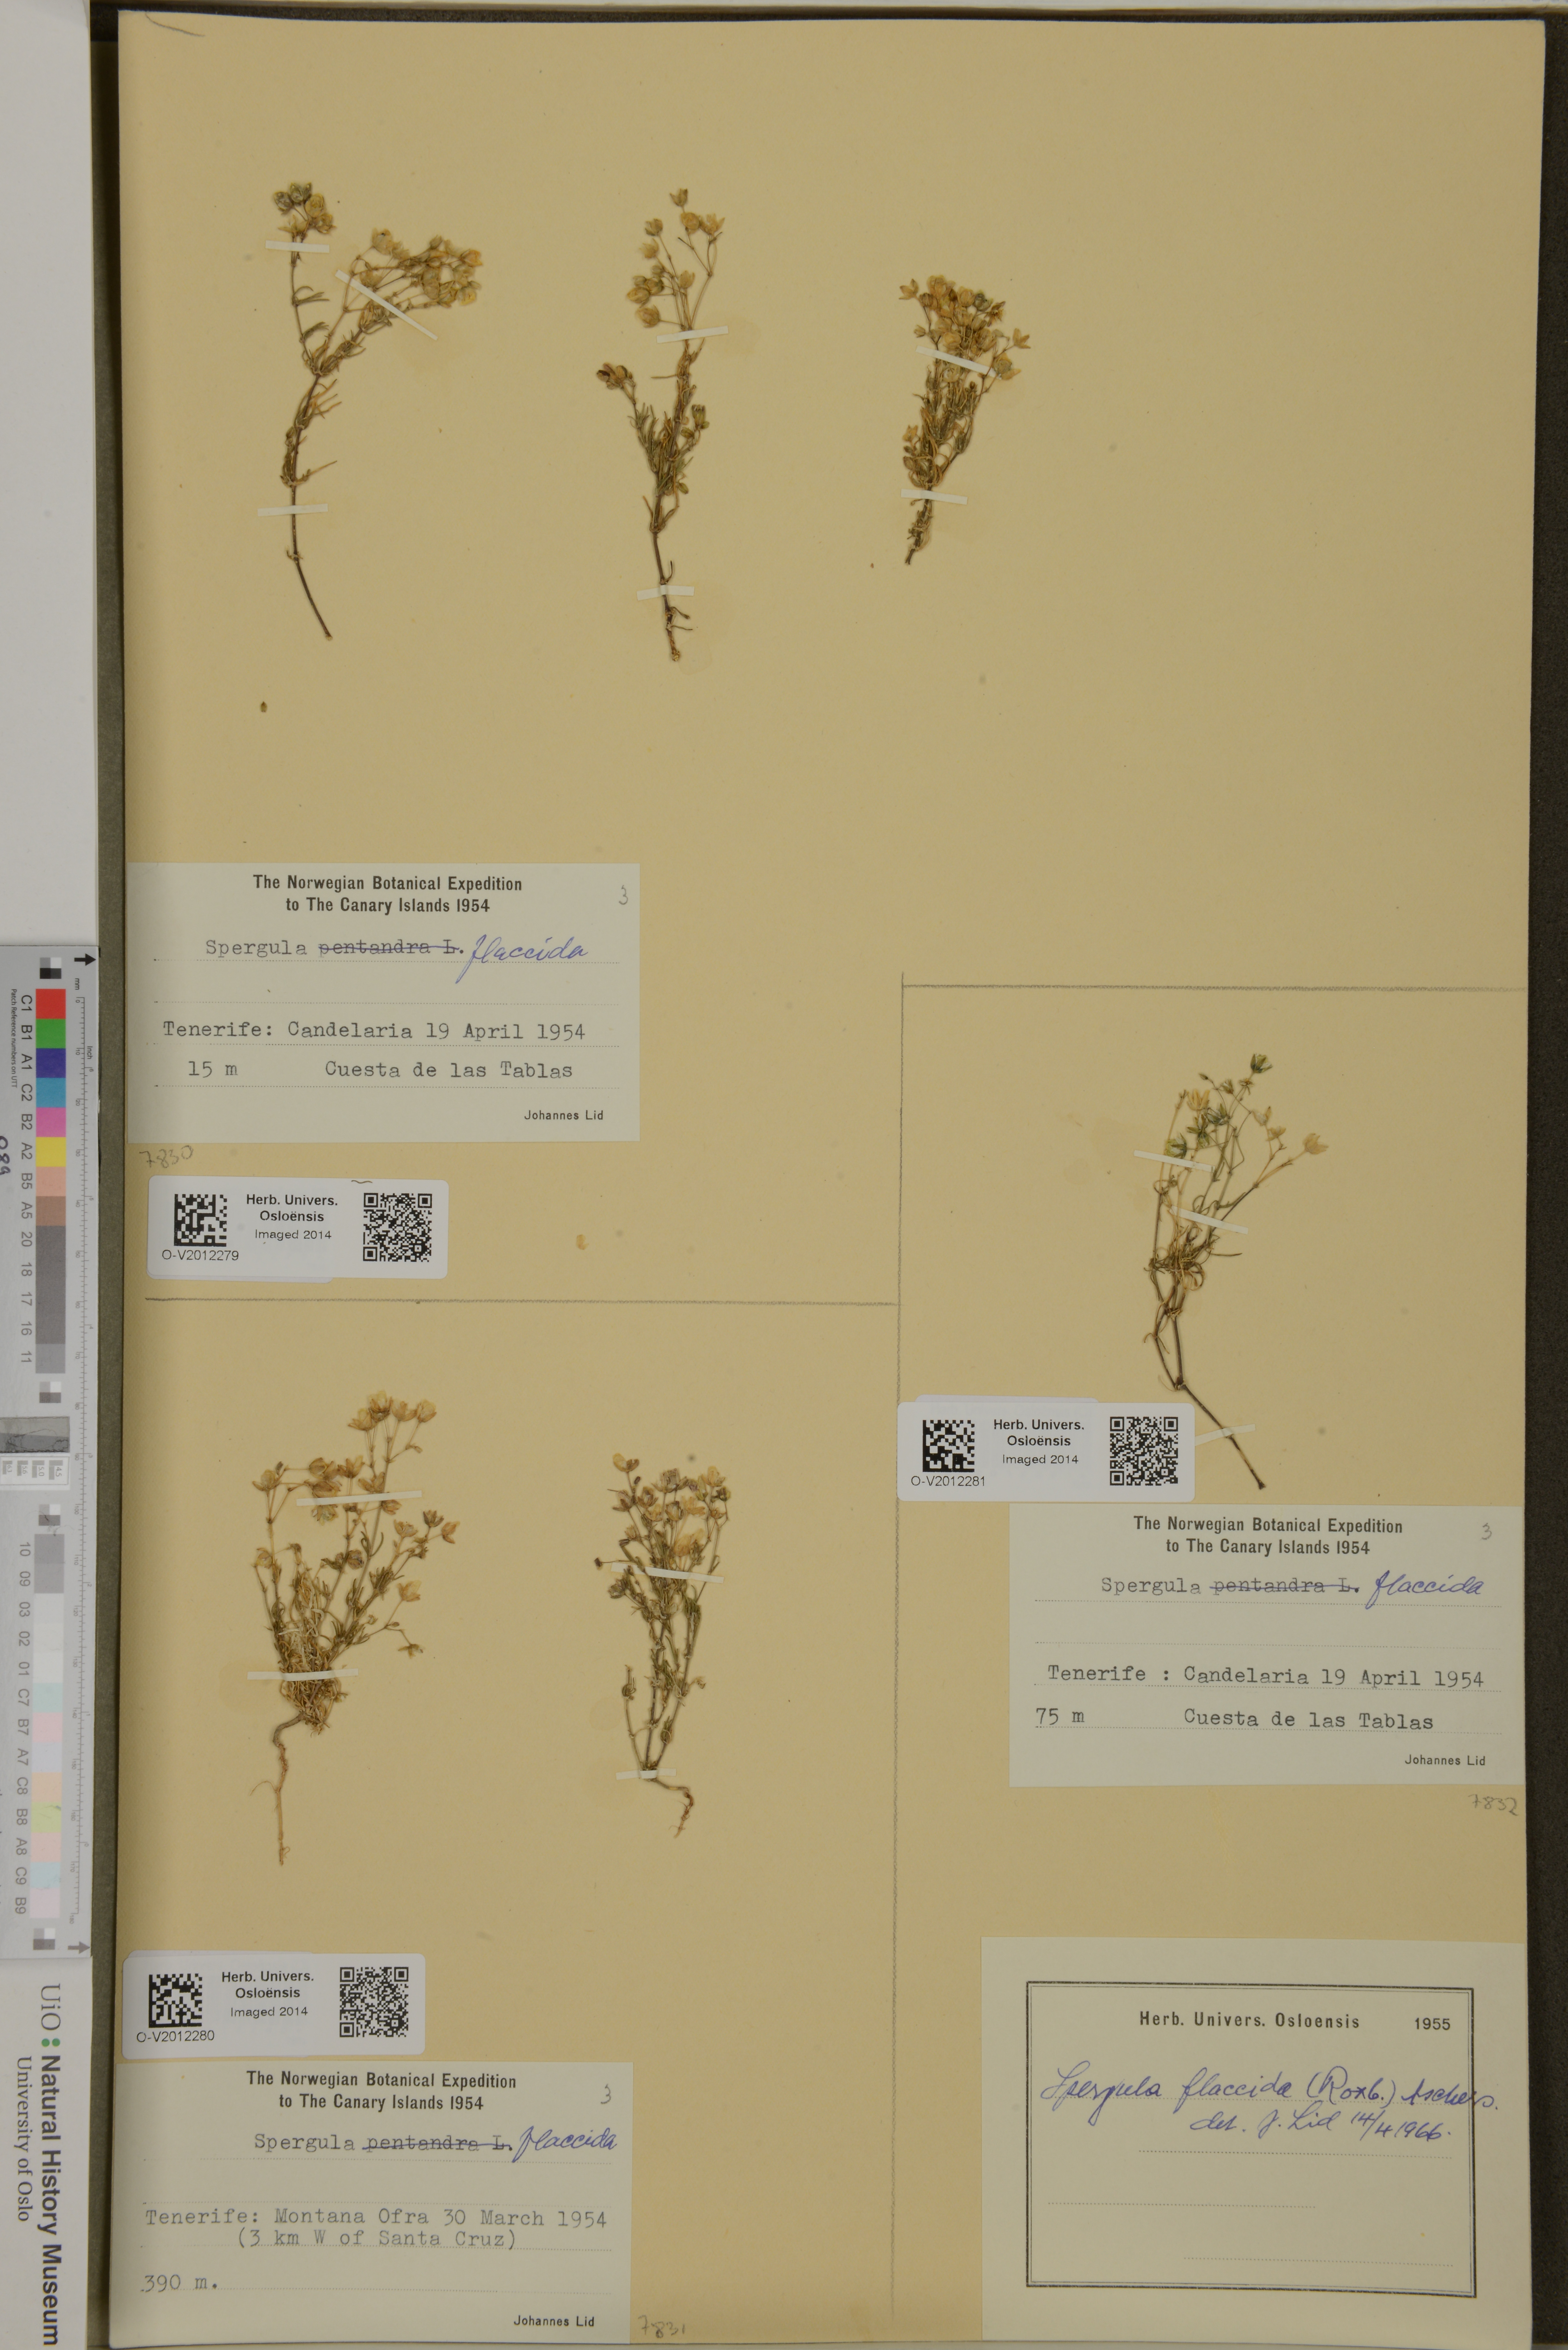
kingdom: Plantae
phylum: Tracheophyta
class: Magnoliopsida
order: Caryophyllales
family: Caryophyllaceae
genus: Spergularia
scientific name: Spergularia flaccida
